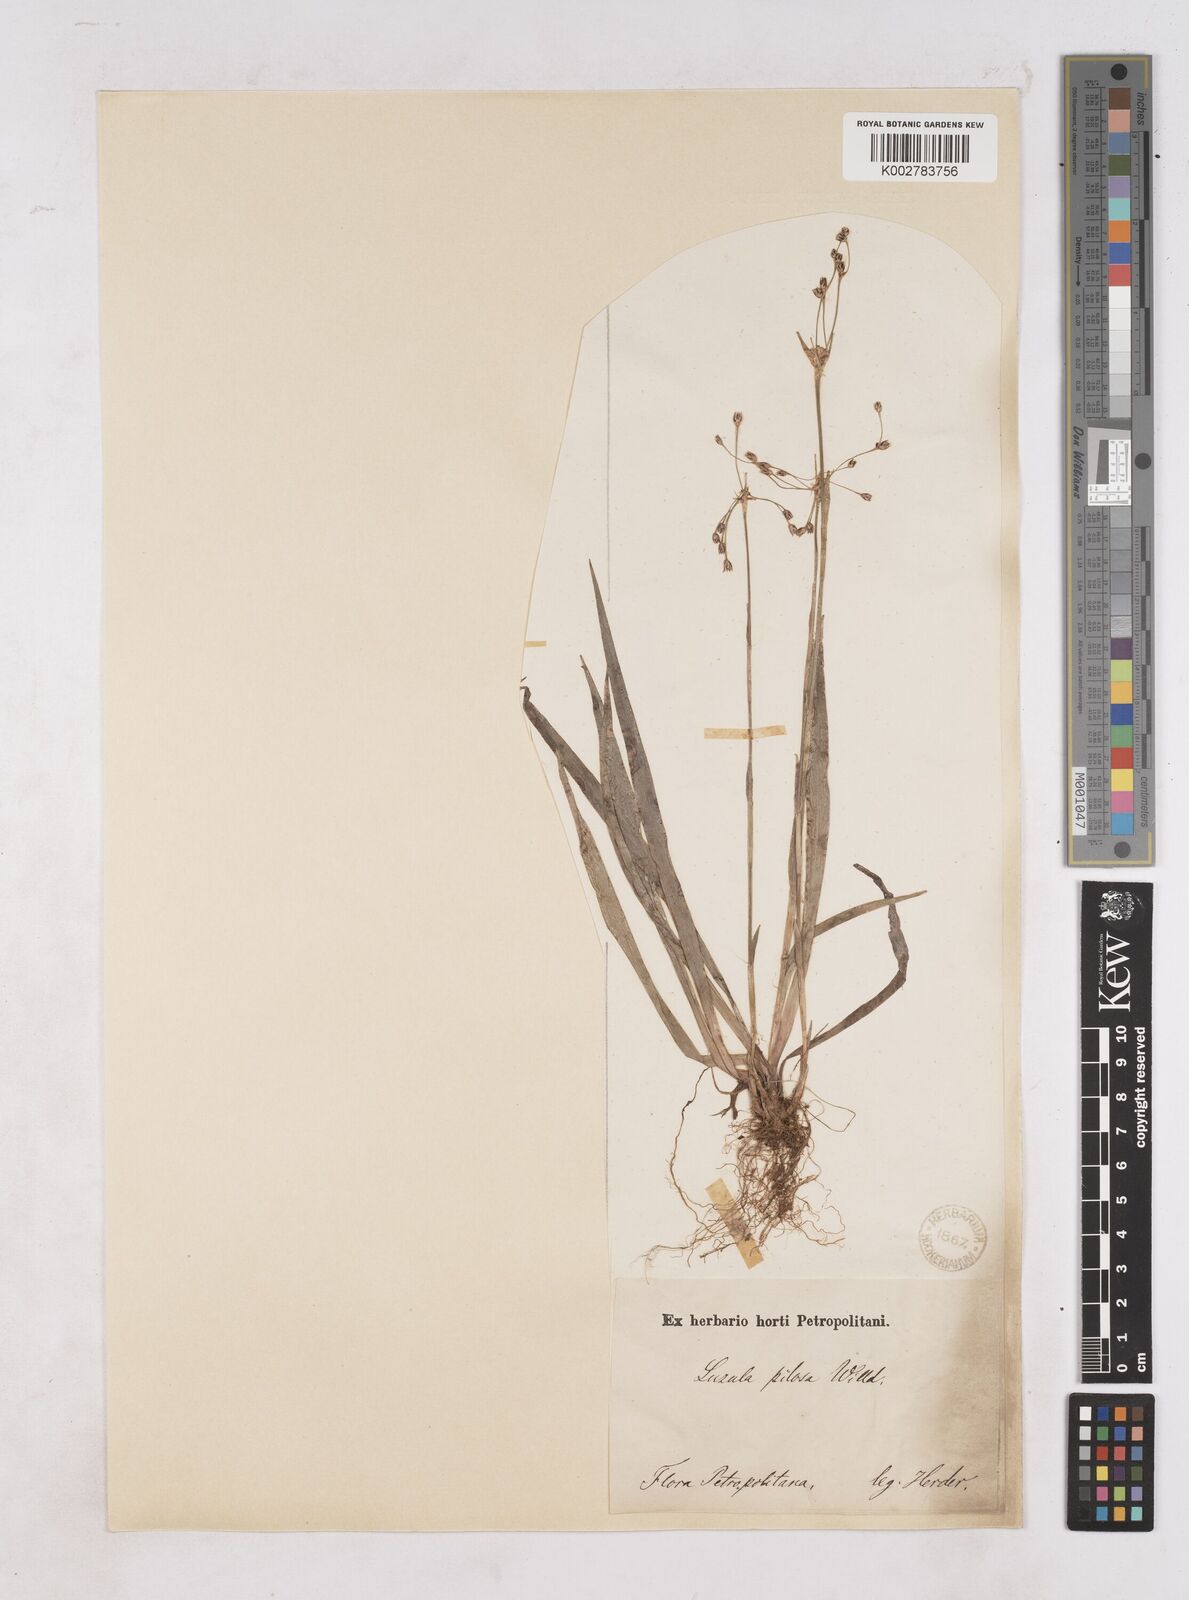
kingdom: Plantae
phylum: Tracheophyta
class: Liliopsida
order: Poales
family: Juncaceae
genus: Luzula
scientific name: Luzula pilosa
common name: Hairy wood-rush
